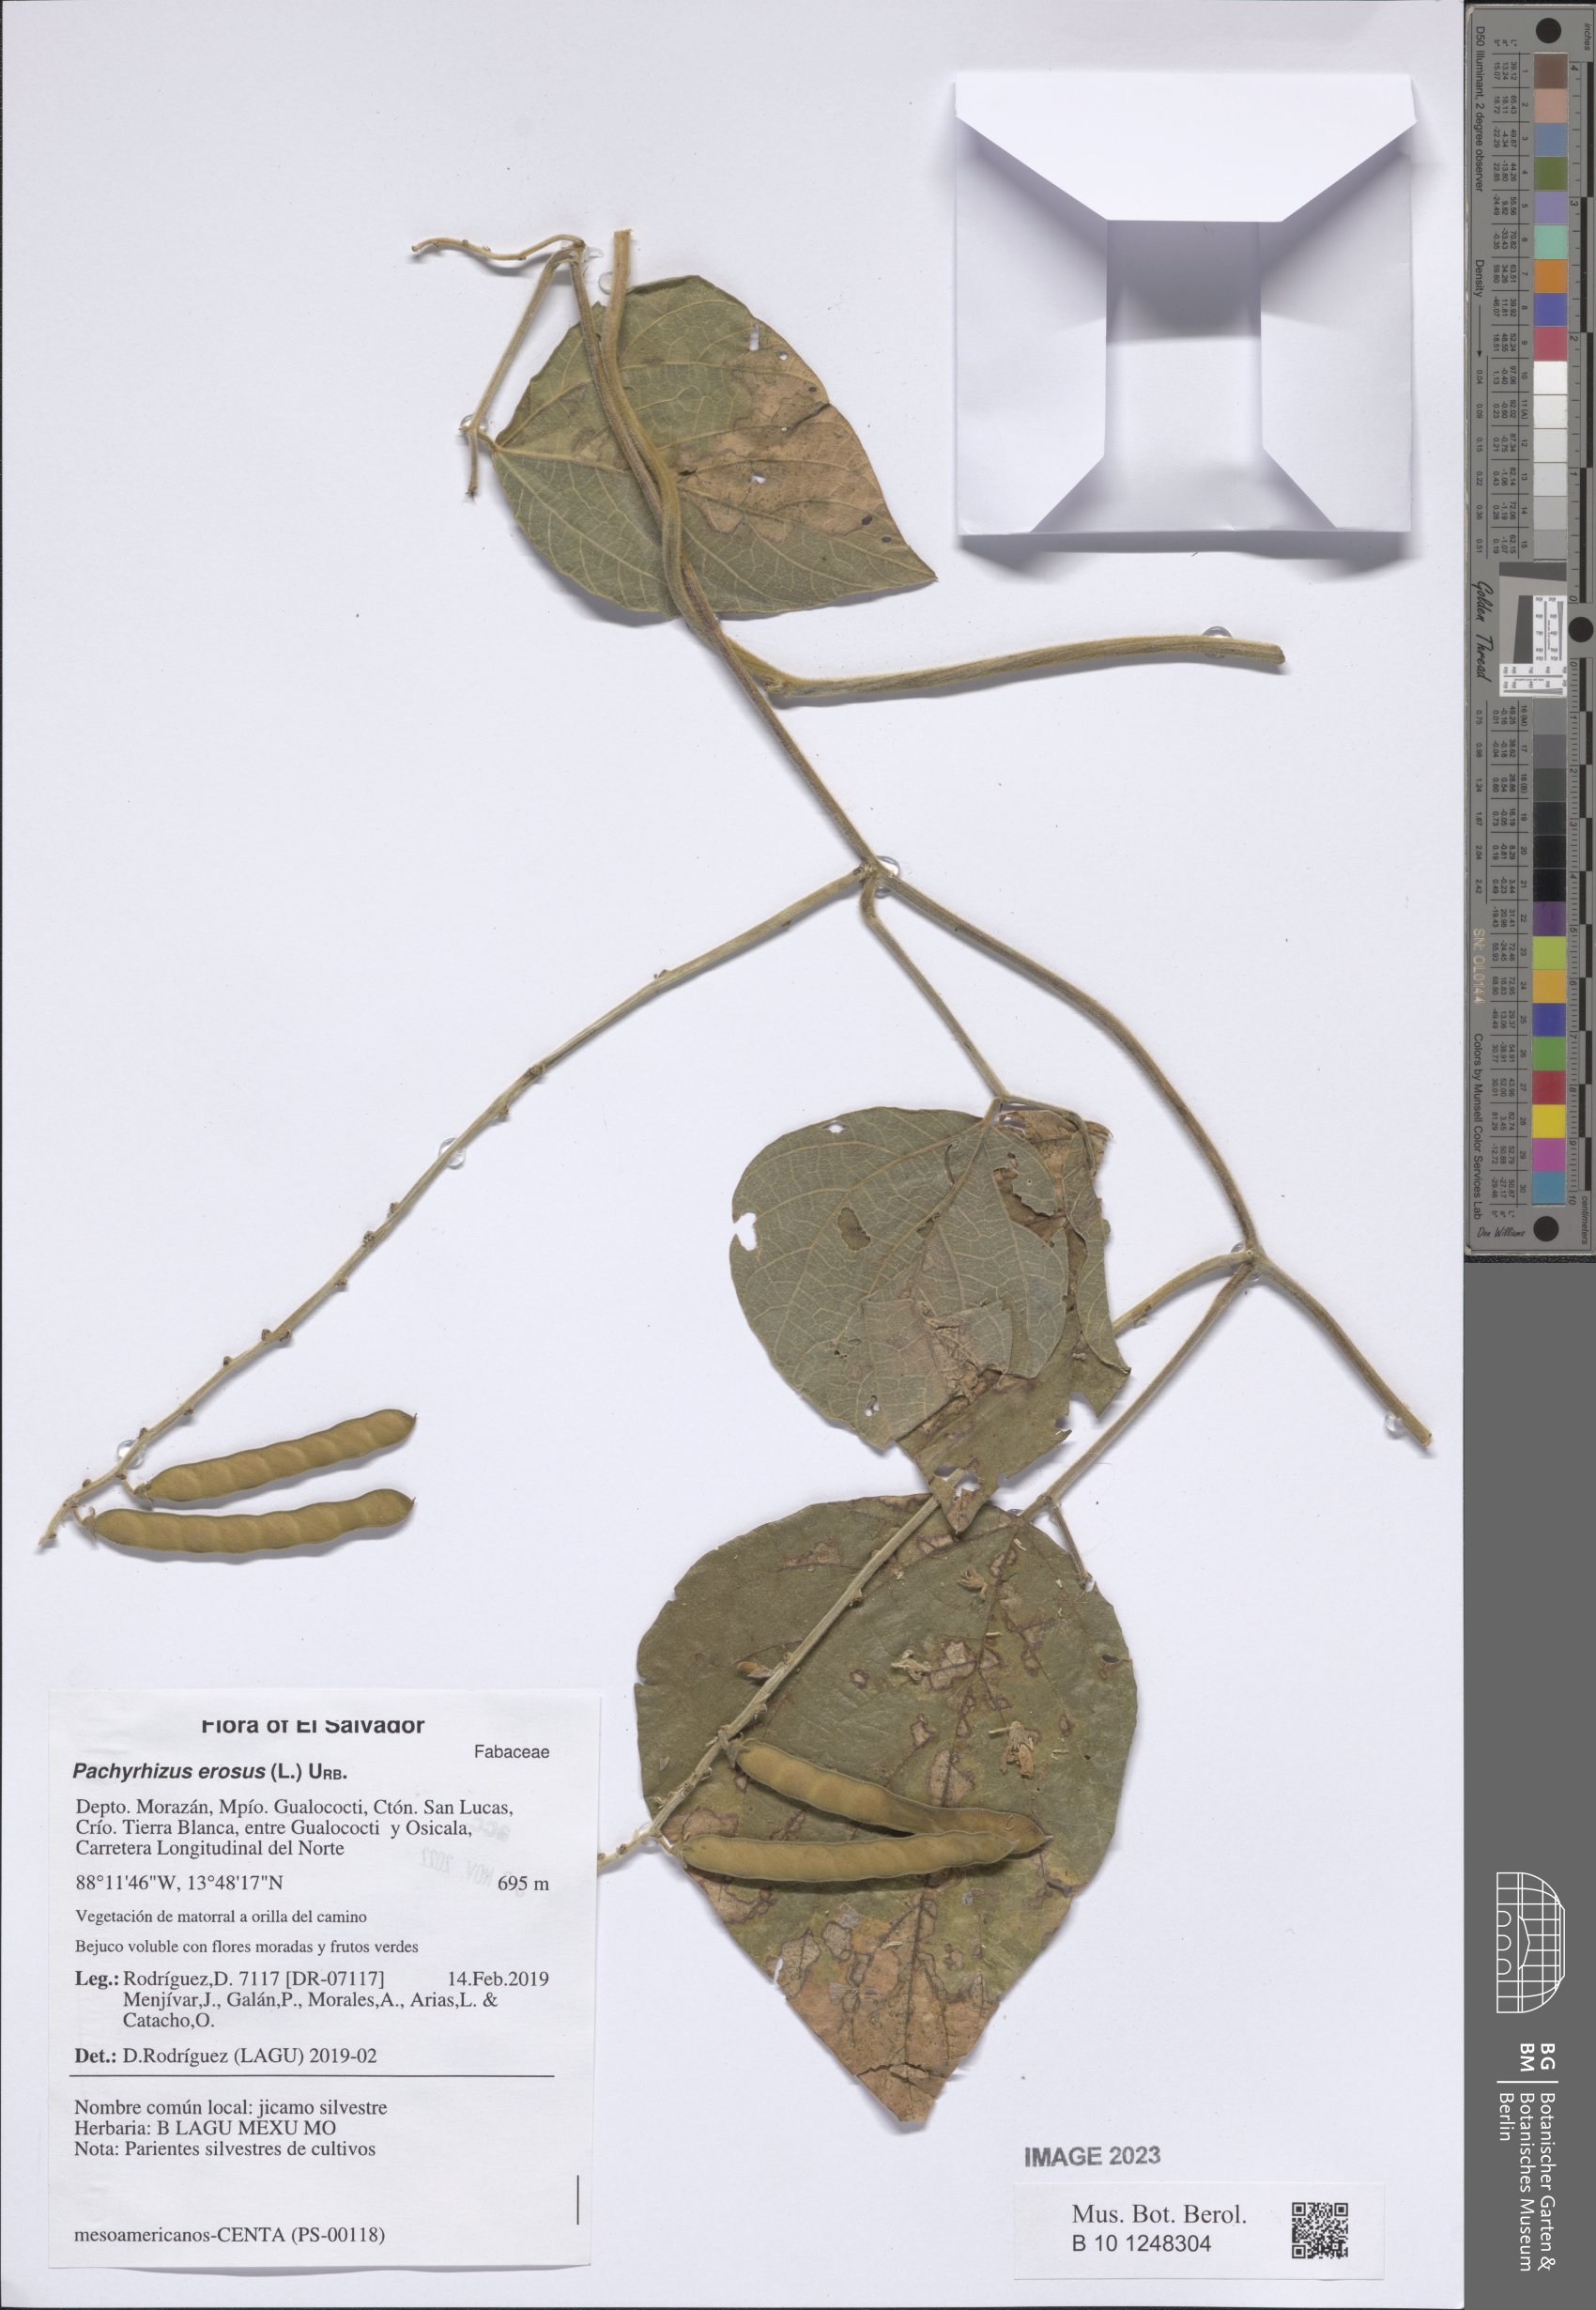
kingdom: Plantae
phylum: Tracheophyta
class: Magnoliopsida
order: Fabales
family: Fabaceae
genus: Pachyrhizus
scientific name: Pachyrhizus erosus
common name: Yam bean
